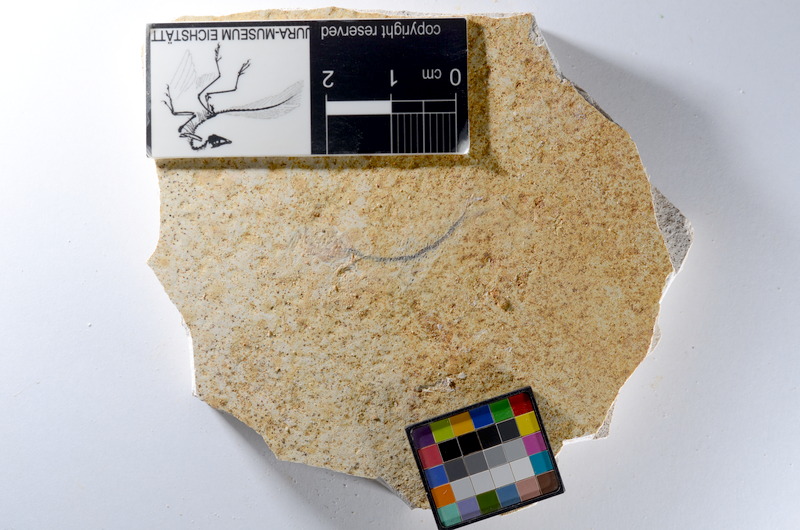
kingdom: Animalia
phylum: Chordata
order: Salmoniformes
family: Orthogonikleithridae
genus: Orthogonikleithrus
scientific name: Orthogonikleithrus hoelli
